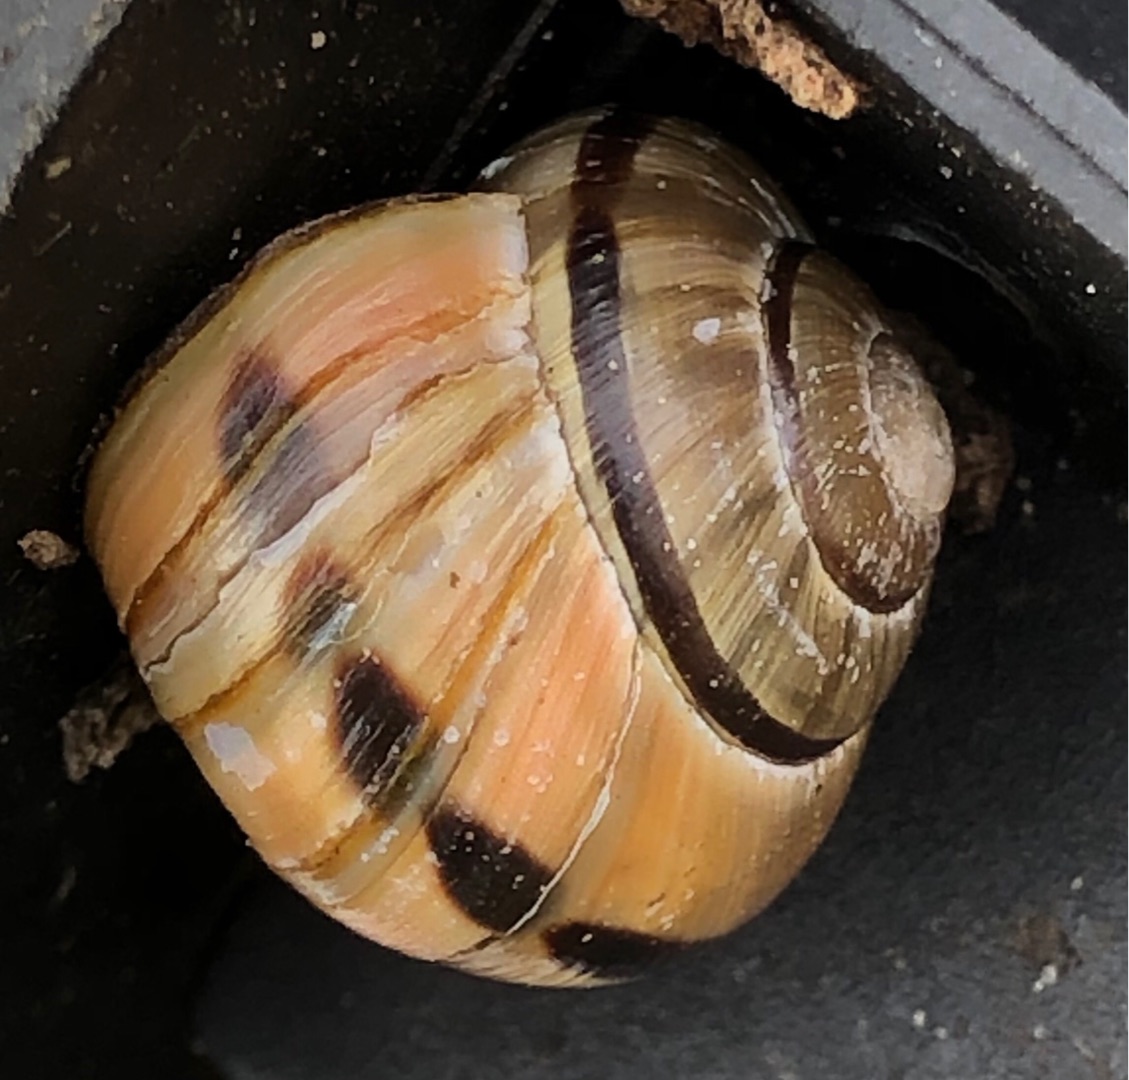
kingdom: Animalia
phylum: Mollusca
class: Gastropoda
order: Stylommatophora
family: Helicidae
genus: Cepaea
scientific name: Cepaea nemoralis
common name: Lundsnegl
